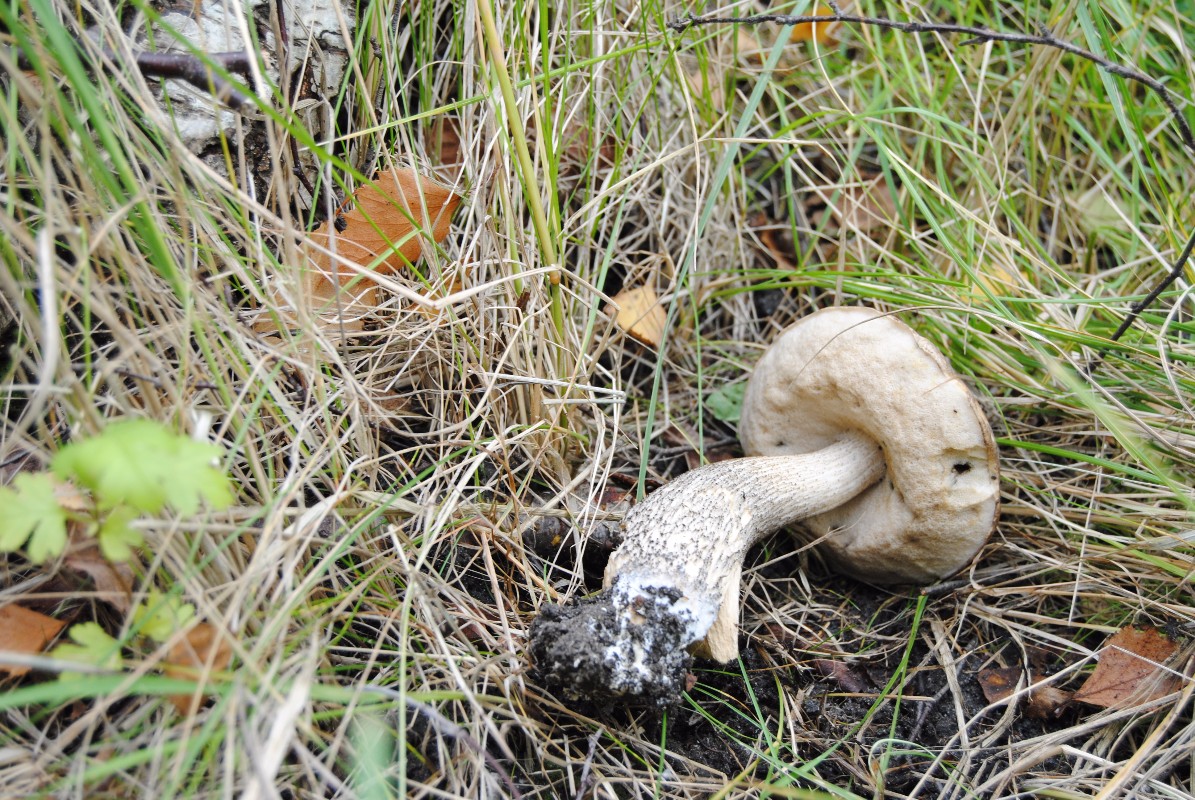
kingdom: Fungi
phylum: Basidiomycota
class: Agaricomycetes
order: Boletales
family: Boletaceae
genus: Leccinum
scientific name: Leccinum scabrum
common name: brun skælrørhat
